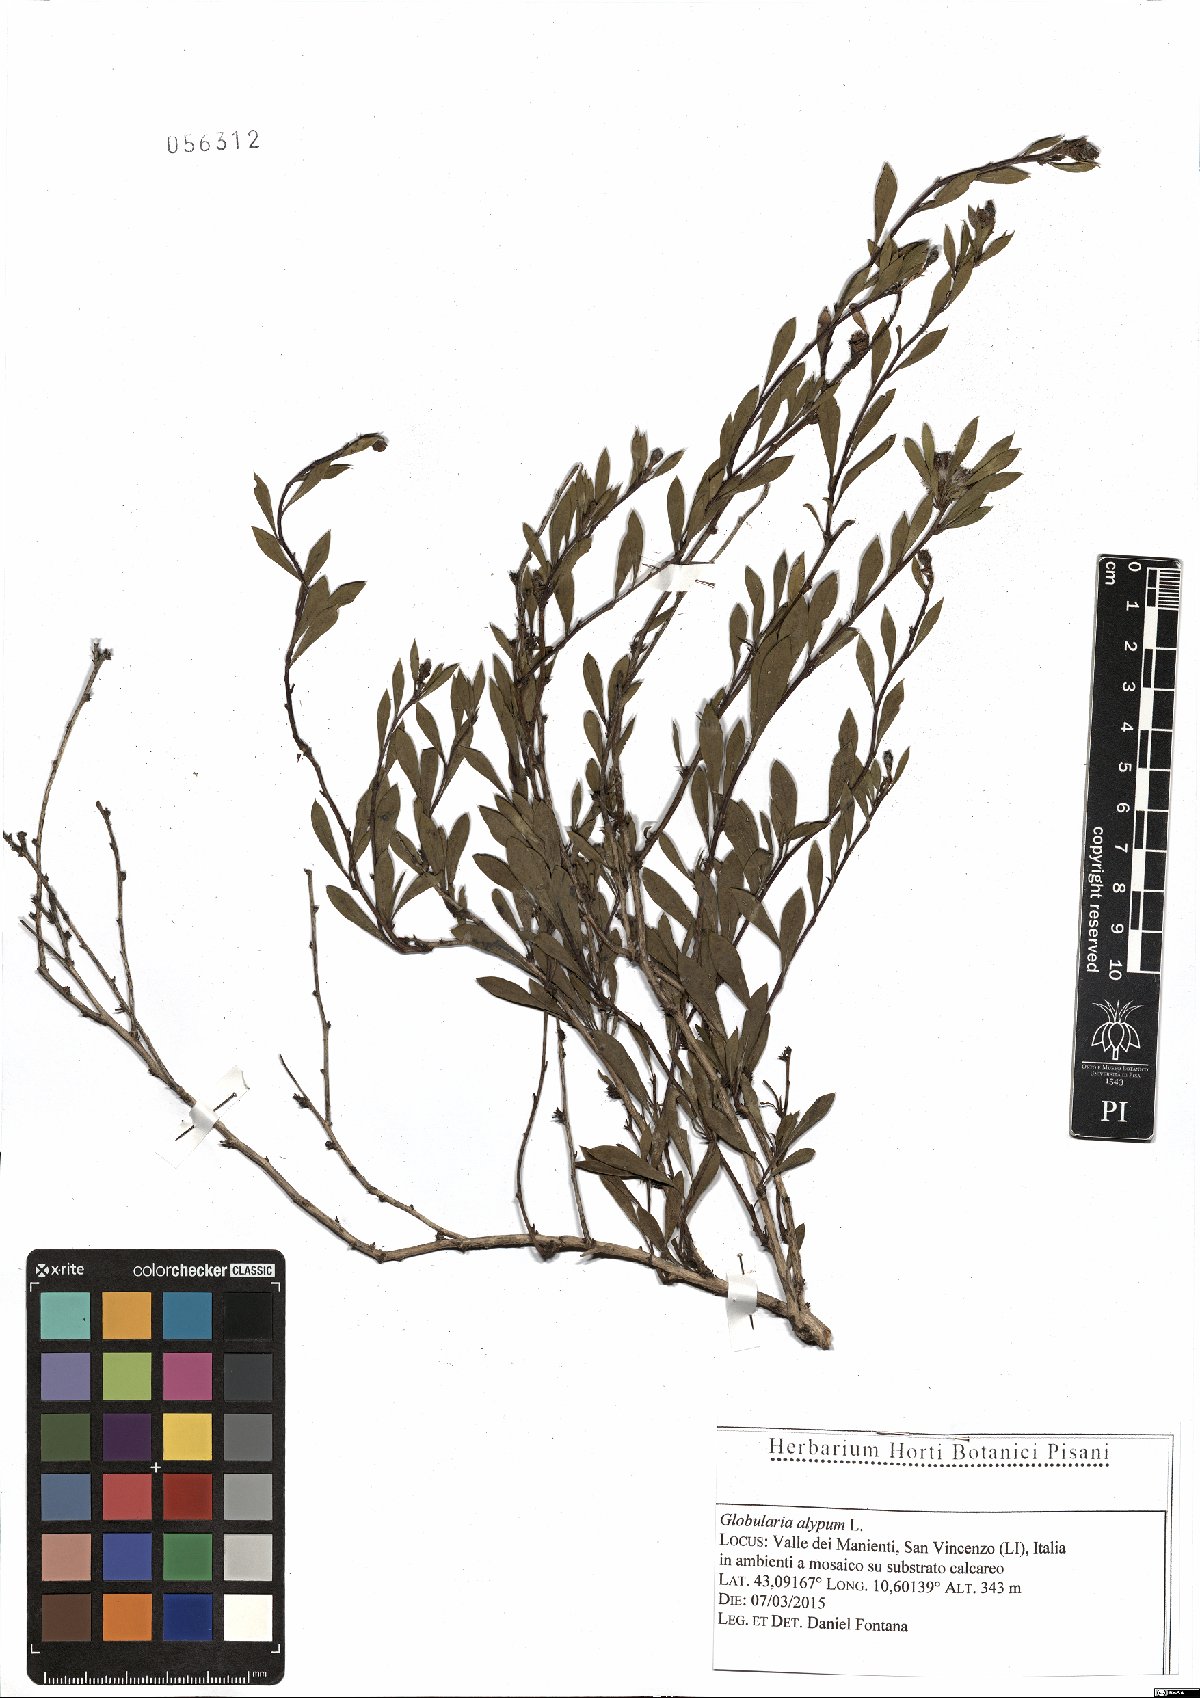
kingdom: Plantae
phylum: Tracheophyta
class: Magnoliopsida
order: Lamiales
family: Plantaginaceae
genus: Globularia
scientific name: Globularia alypum
